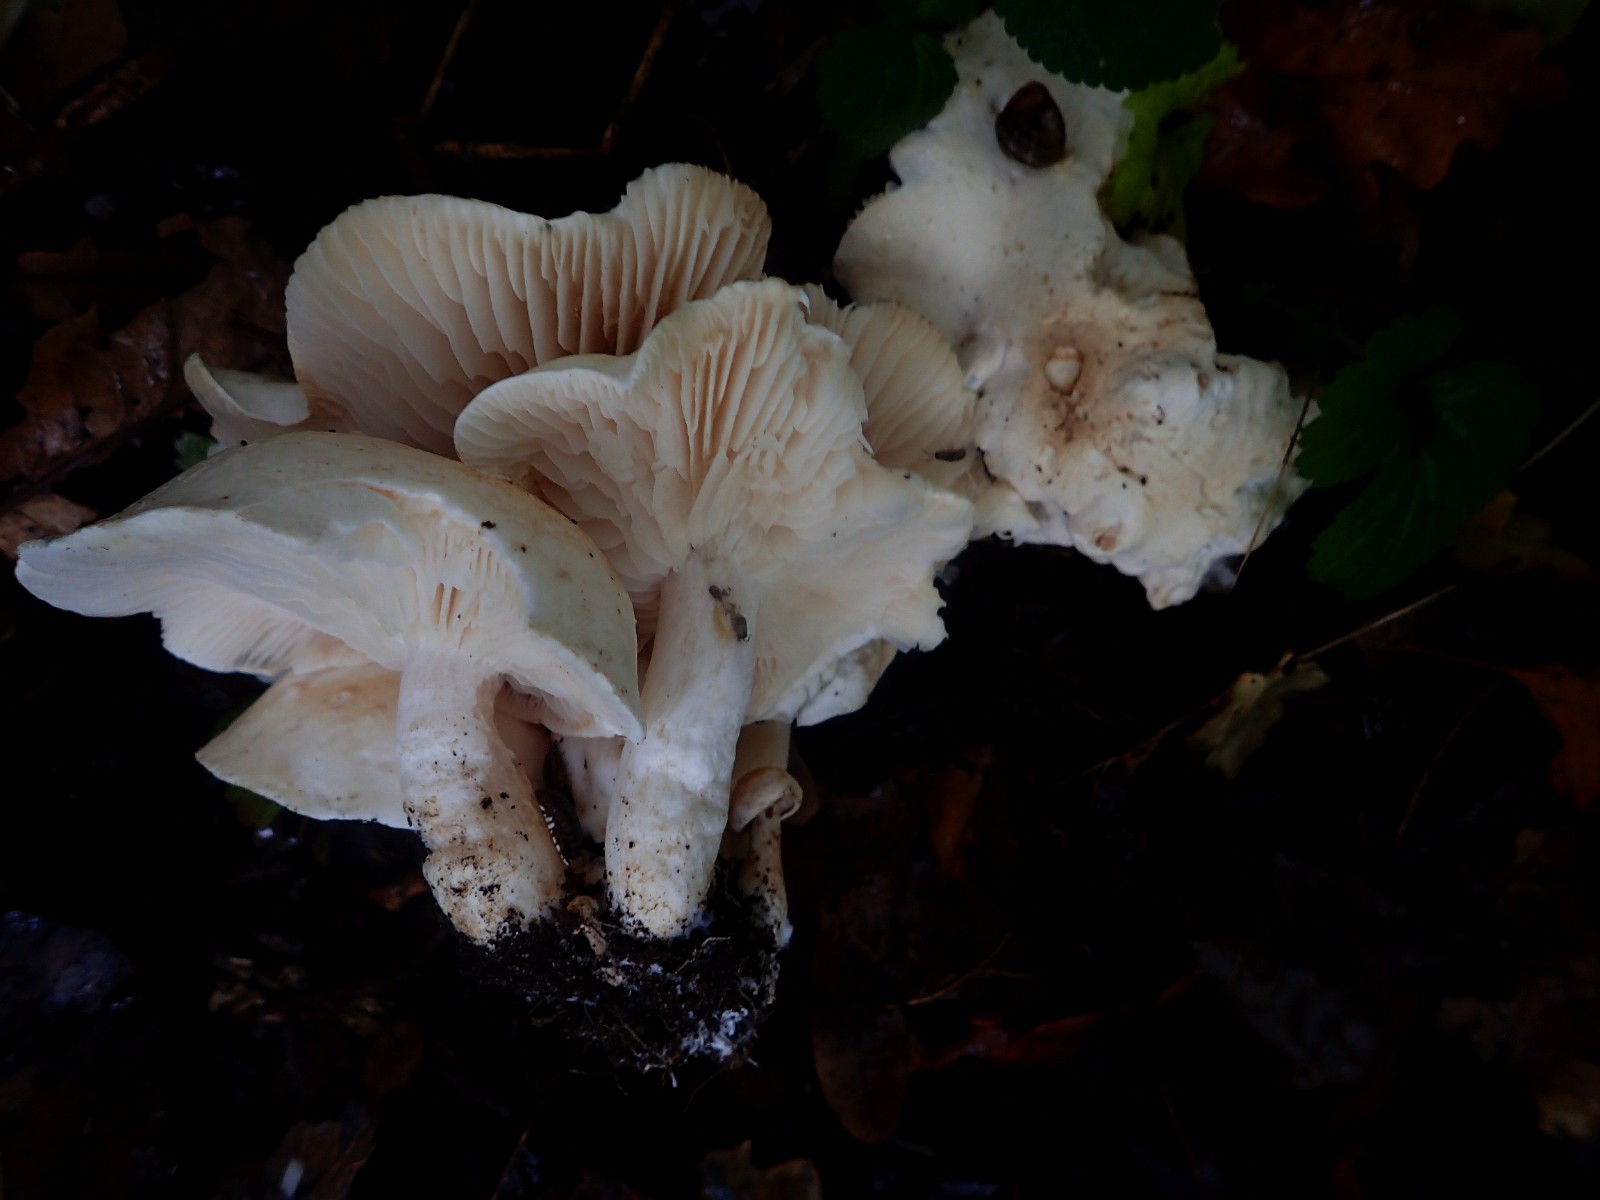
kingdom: Fungi
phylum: Basidiomycota
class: Agaricomycetes
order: Agaricales
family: Tricholomataceae
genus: Leucocybe
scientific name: Leucocybe connata
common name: knippe-tragthat
